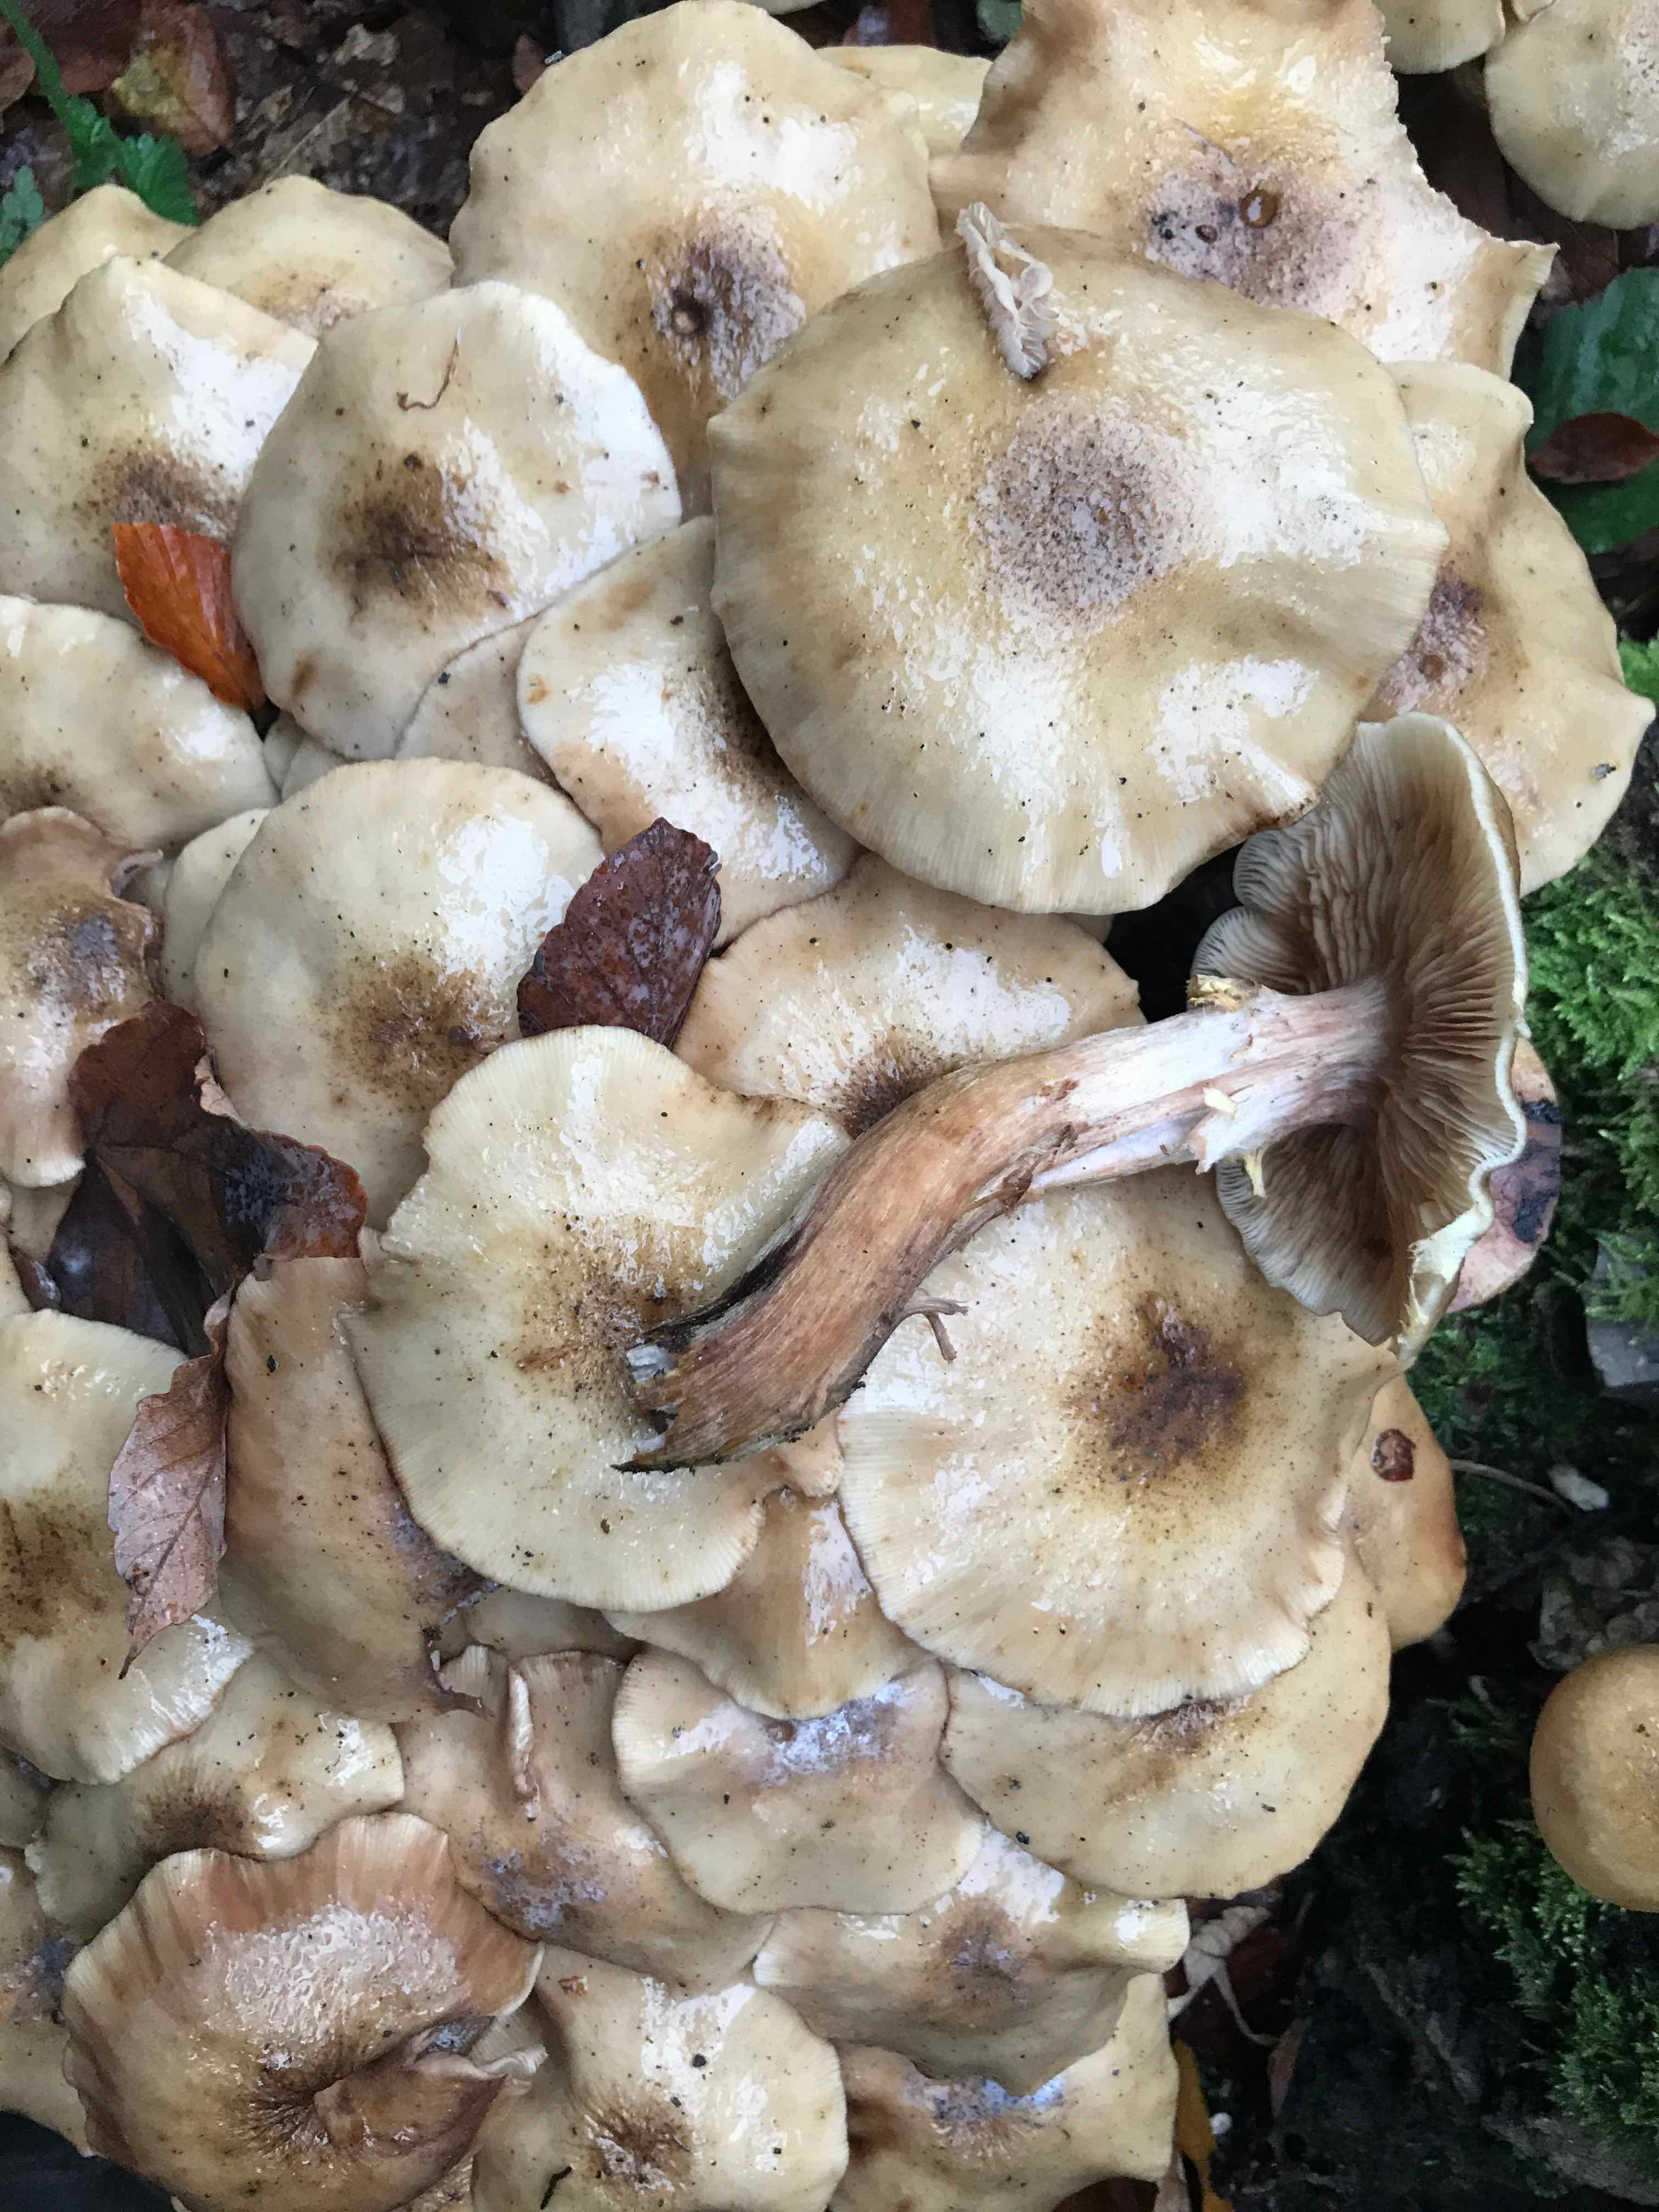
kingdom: Fungi
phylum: Basidiomycota
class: Agaricomycetes
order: Agaricales
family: Physalacriaceae
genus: Armillaria
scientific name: Armillaria mellea
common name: ægte honningsvamp
